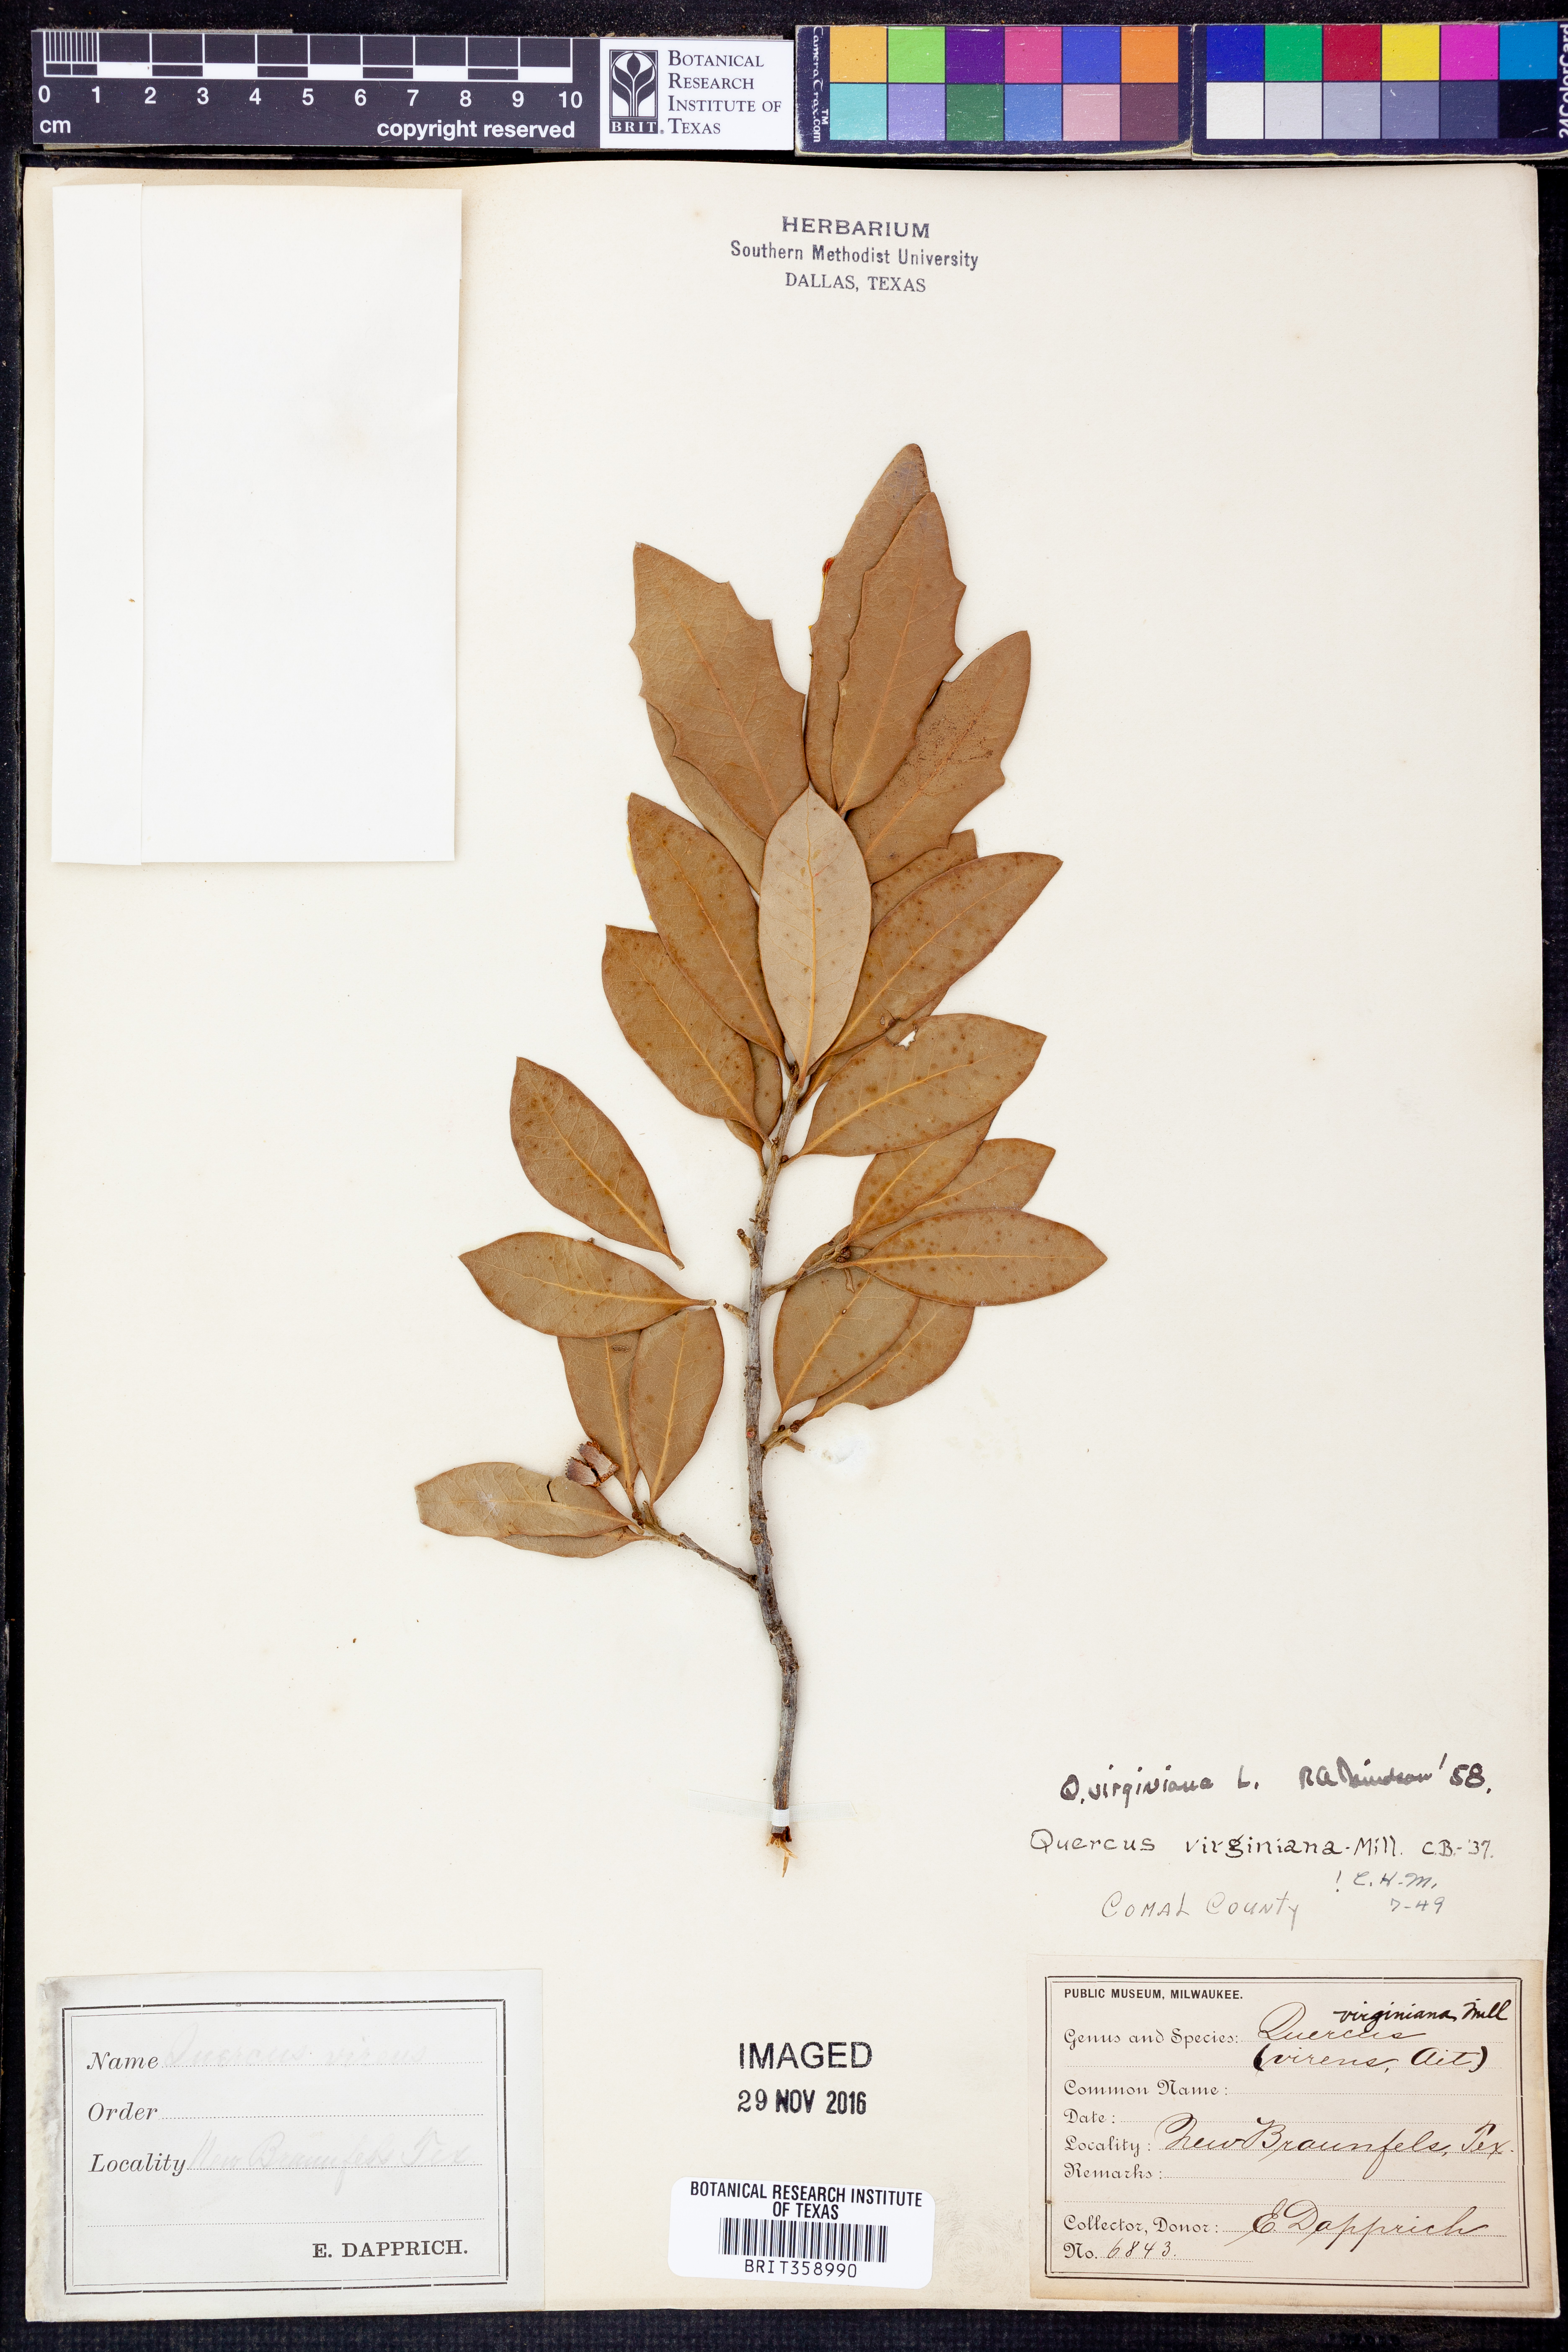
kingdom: Plantae
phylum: Tracheophyta
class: Magnoliopsida
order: Fagales
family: Fagaceae
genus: Quercus
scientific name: Quercus virginiana
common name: Southern live oak
